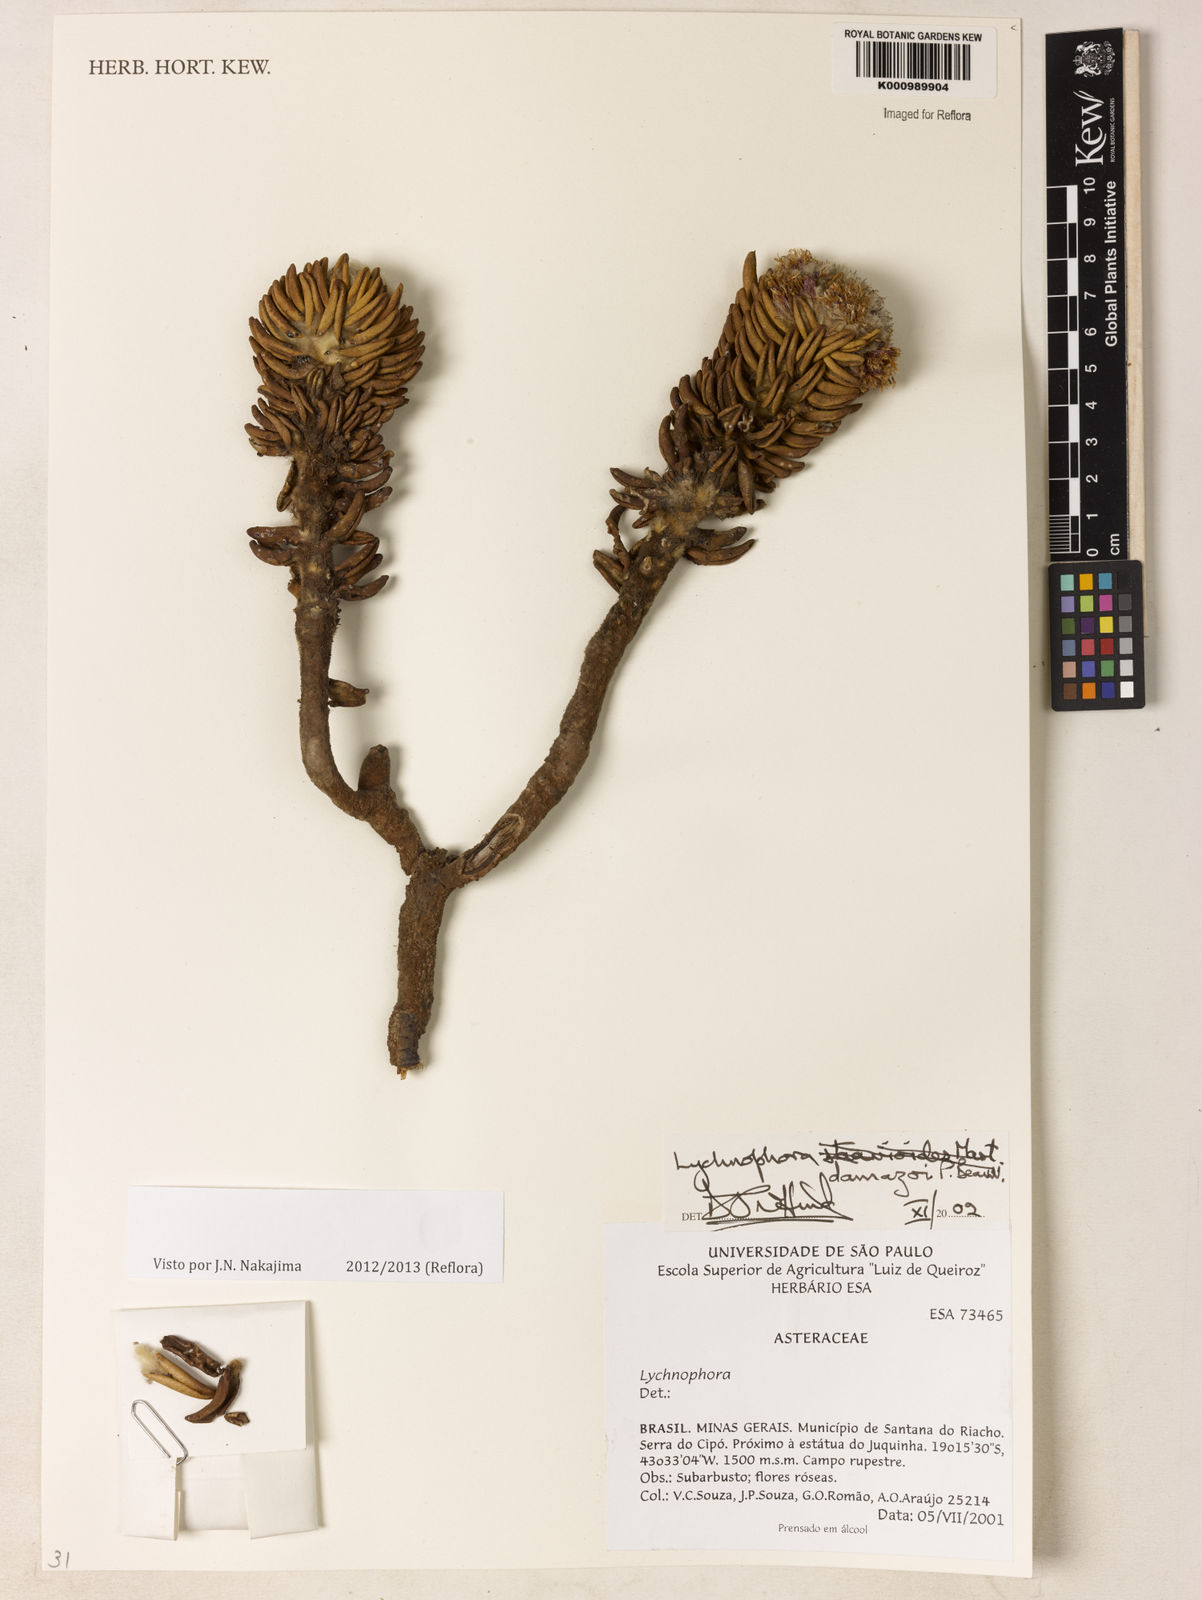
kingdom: Plantae
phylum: Tracheophyta
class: Magnoliopsida
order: Asterales
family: Asteraceae
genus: Lychnophora
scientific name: Lychnophora damazioi
